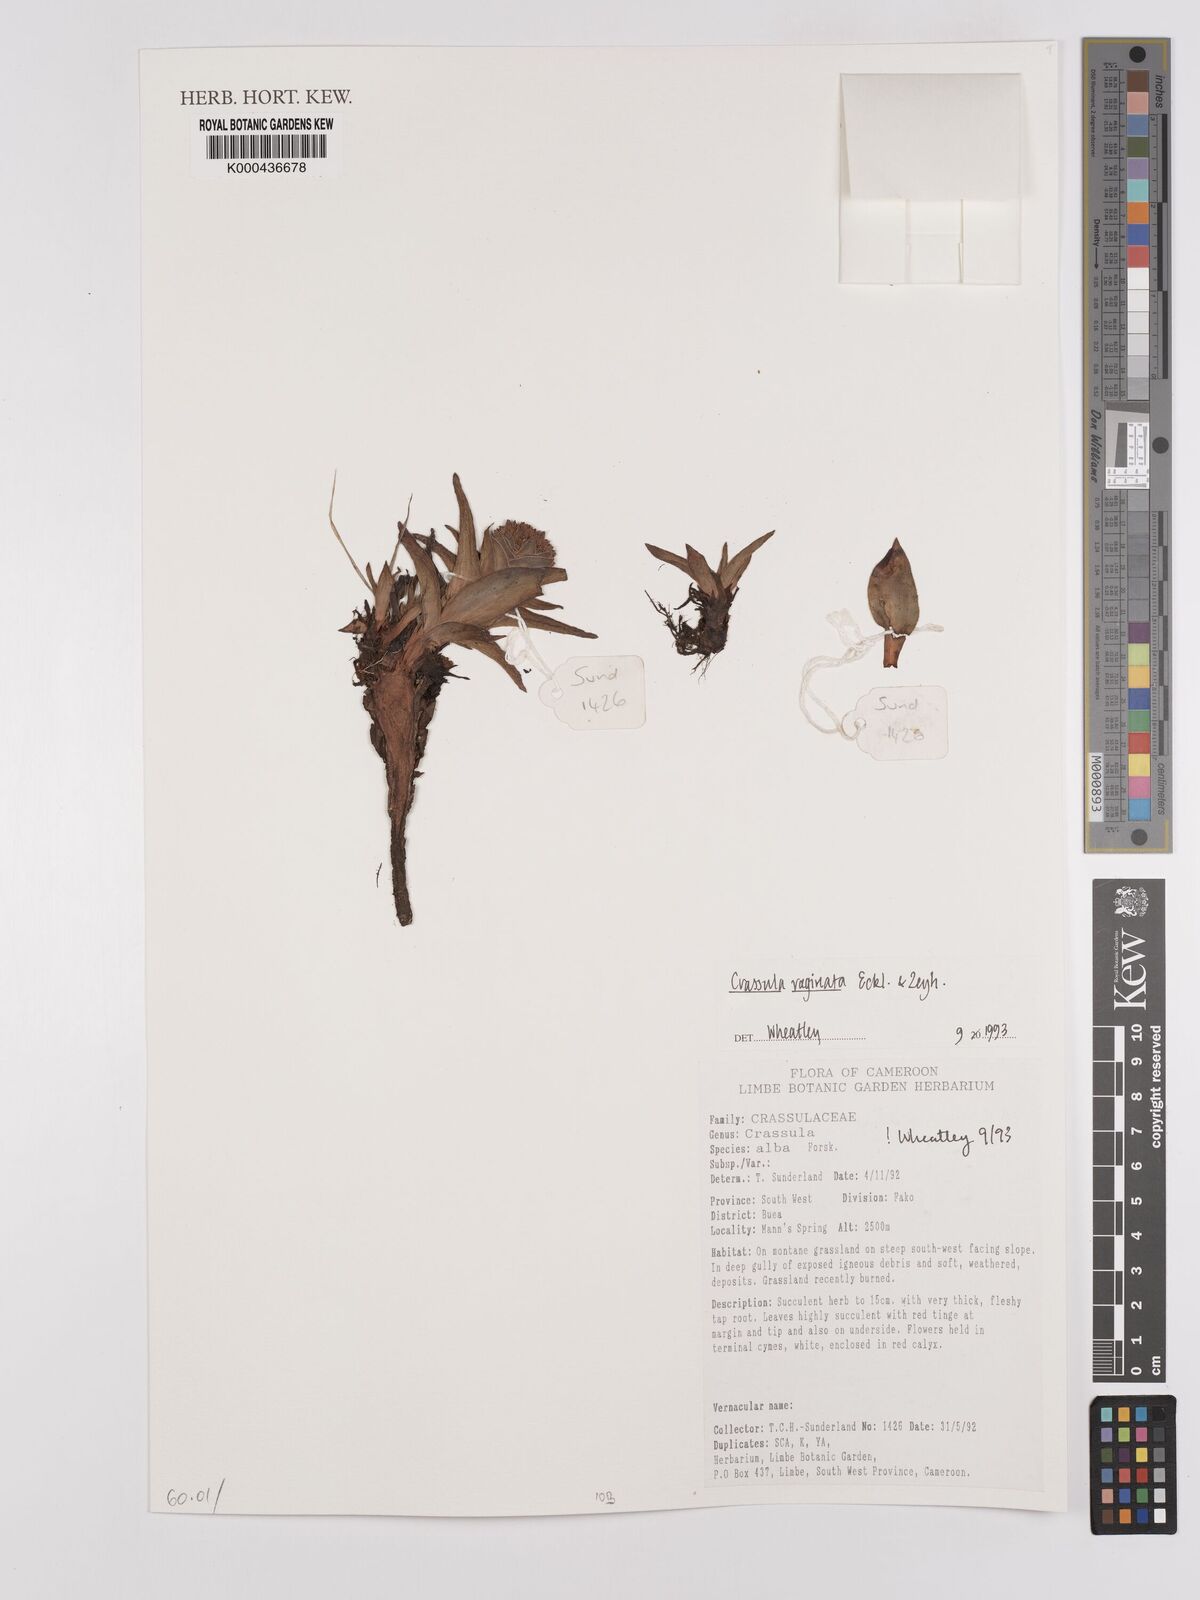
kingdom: Plantae
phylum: Tracheophyta
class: Magnoliopsida
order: Saxifragales
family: Crassulaceae
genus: Crassula
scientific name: Crassula vaginata
